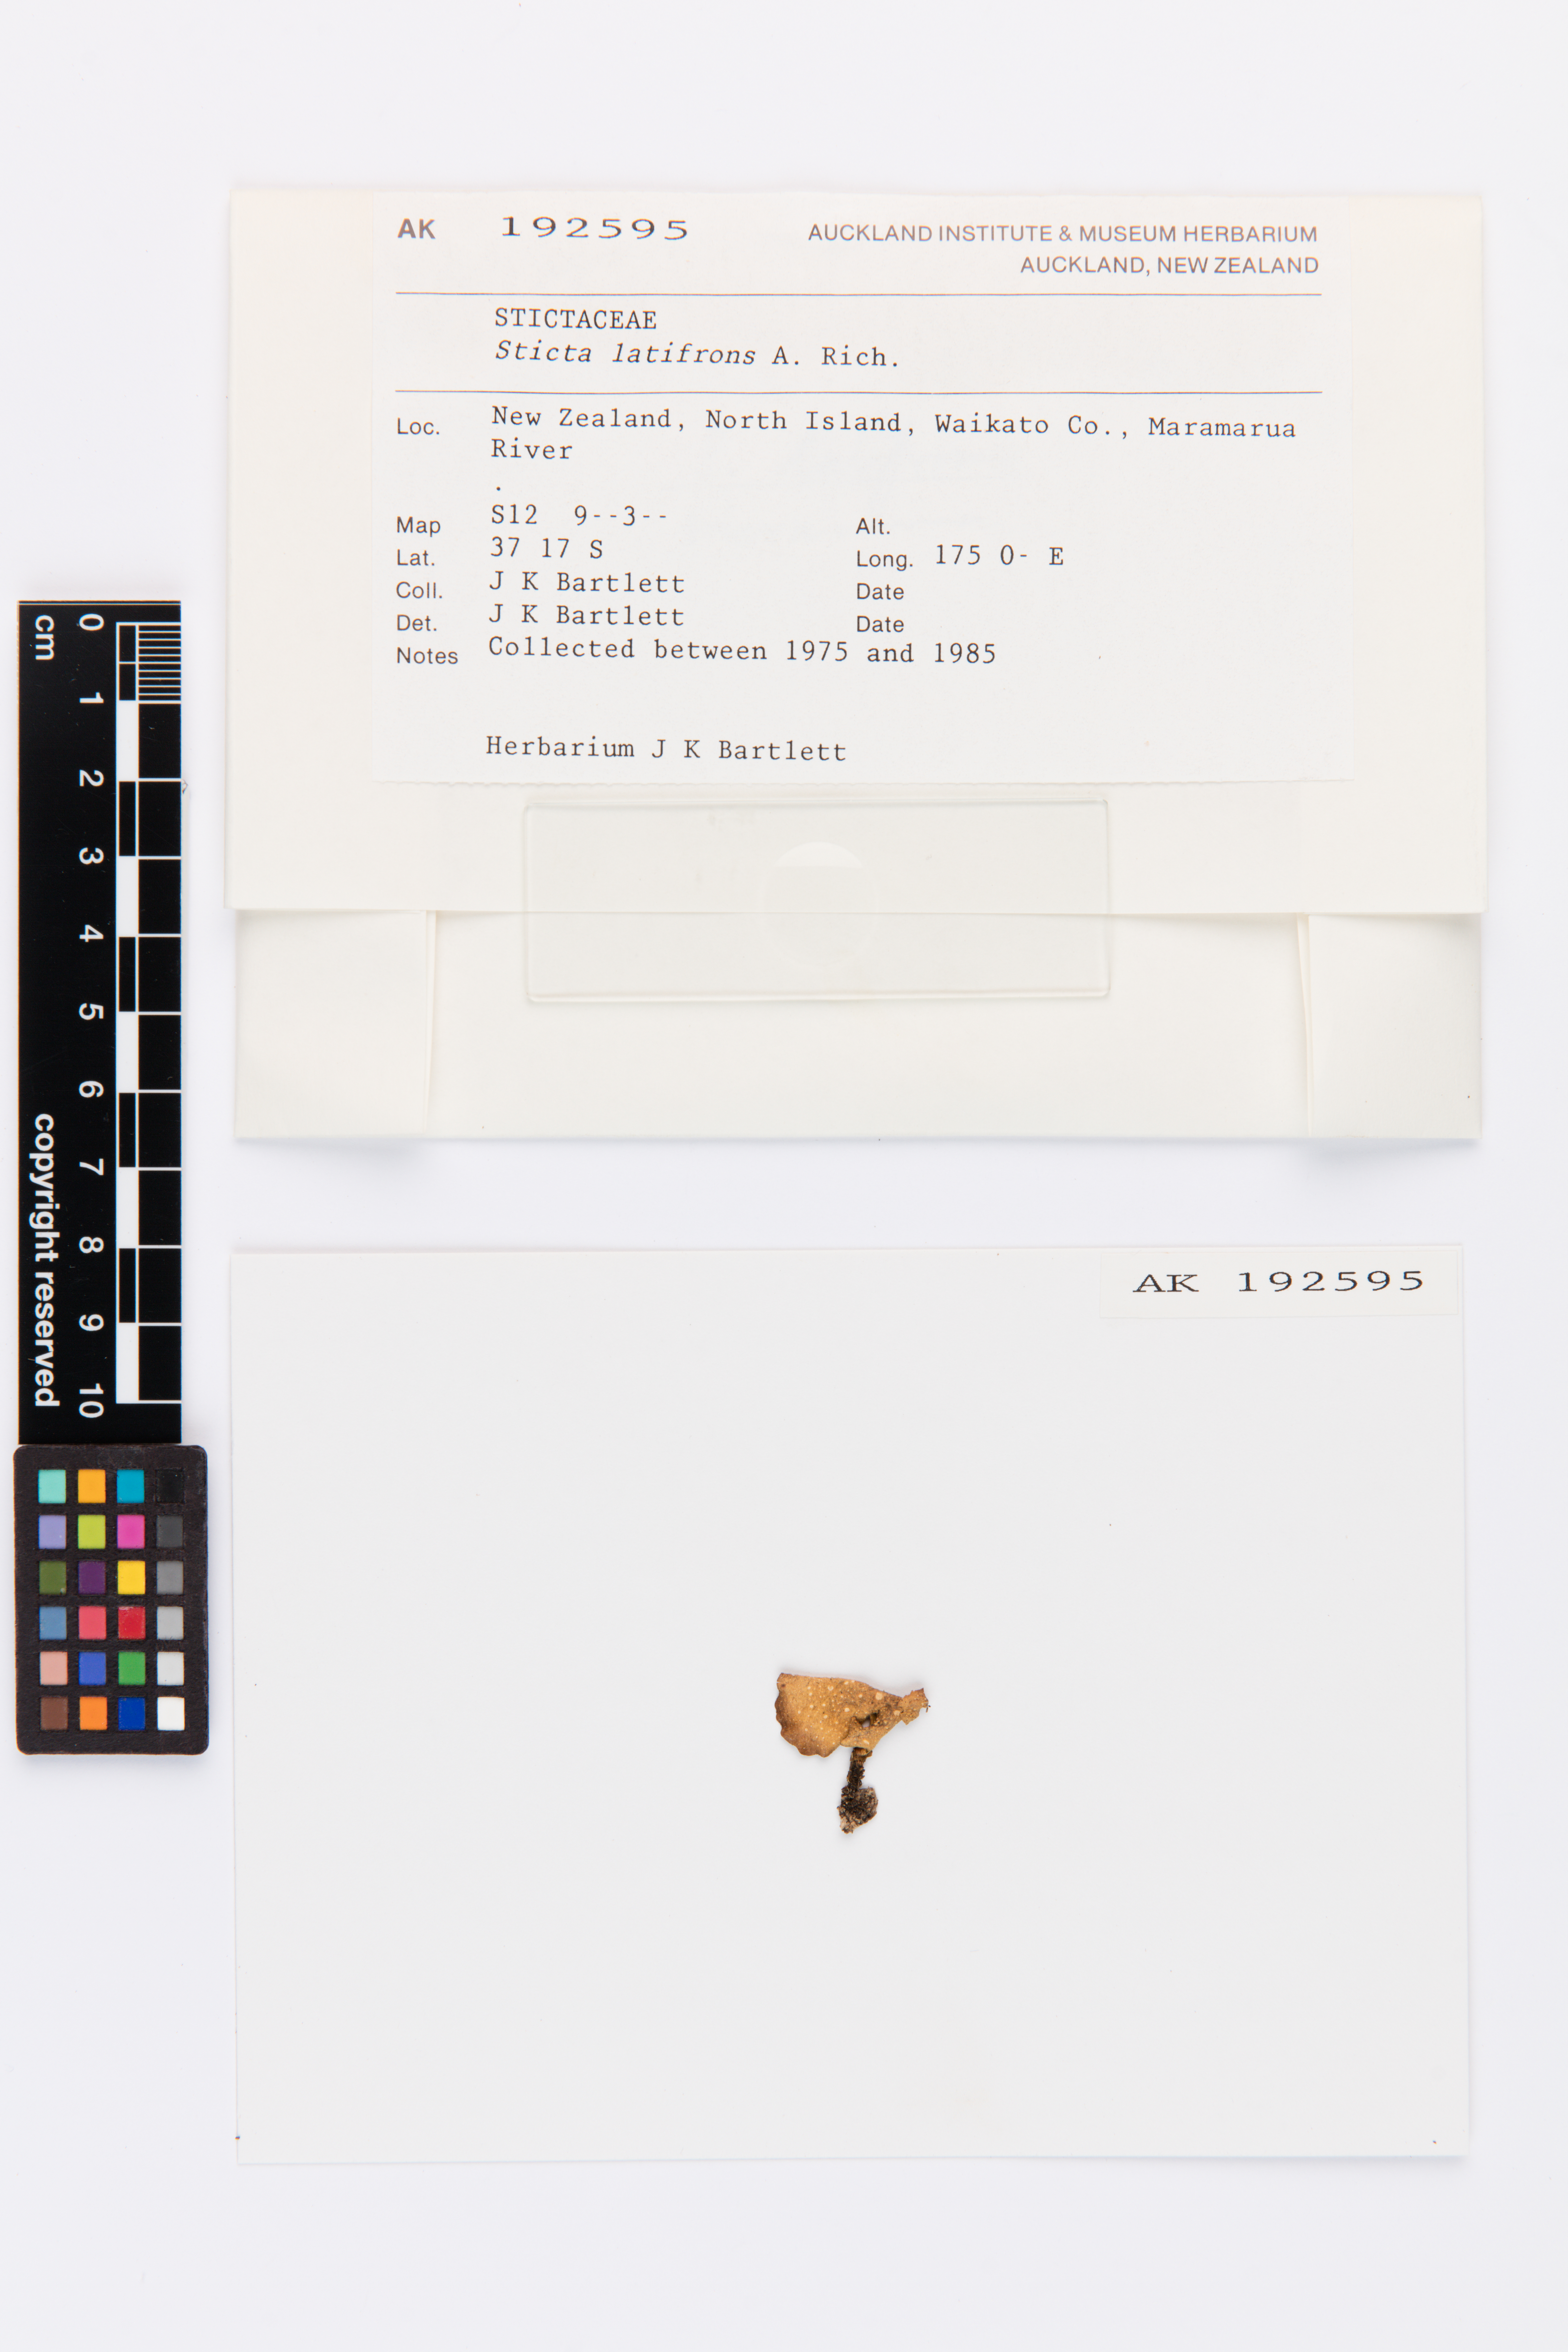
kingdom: Fungi
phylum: Ascomycota
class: Lecanoromycetes
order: Peltigerales
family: Lobariaceae
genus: Sticta
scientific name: Sticta latifrons
